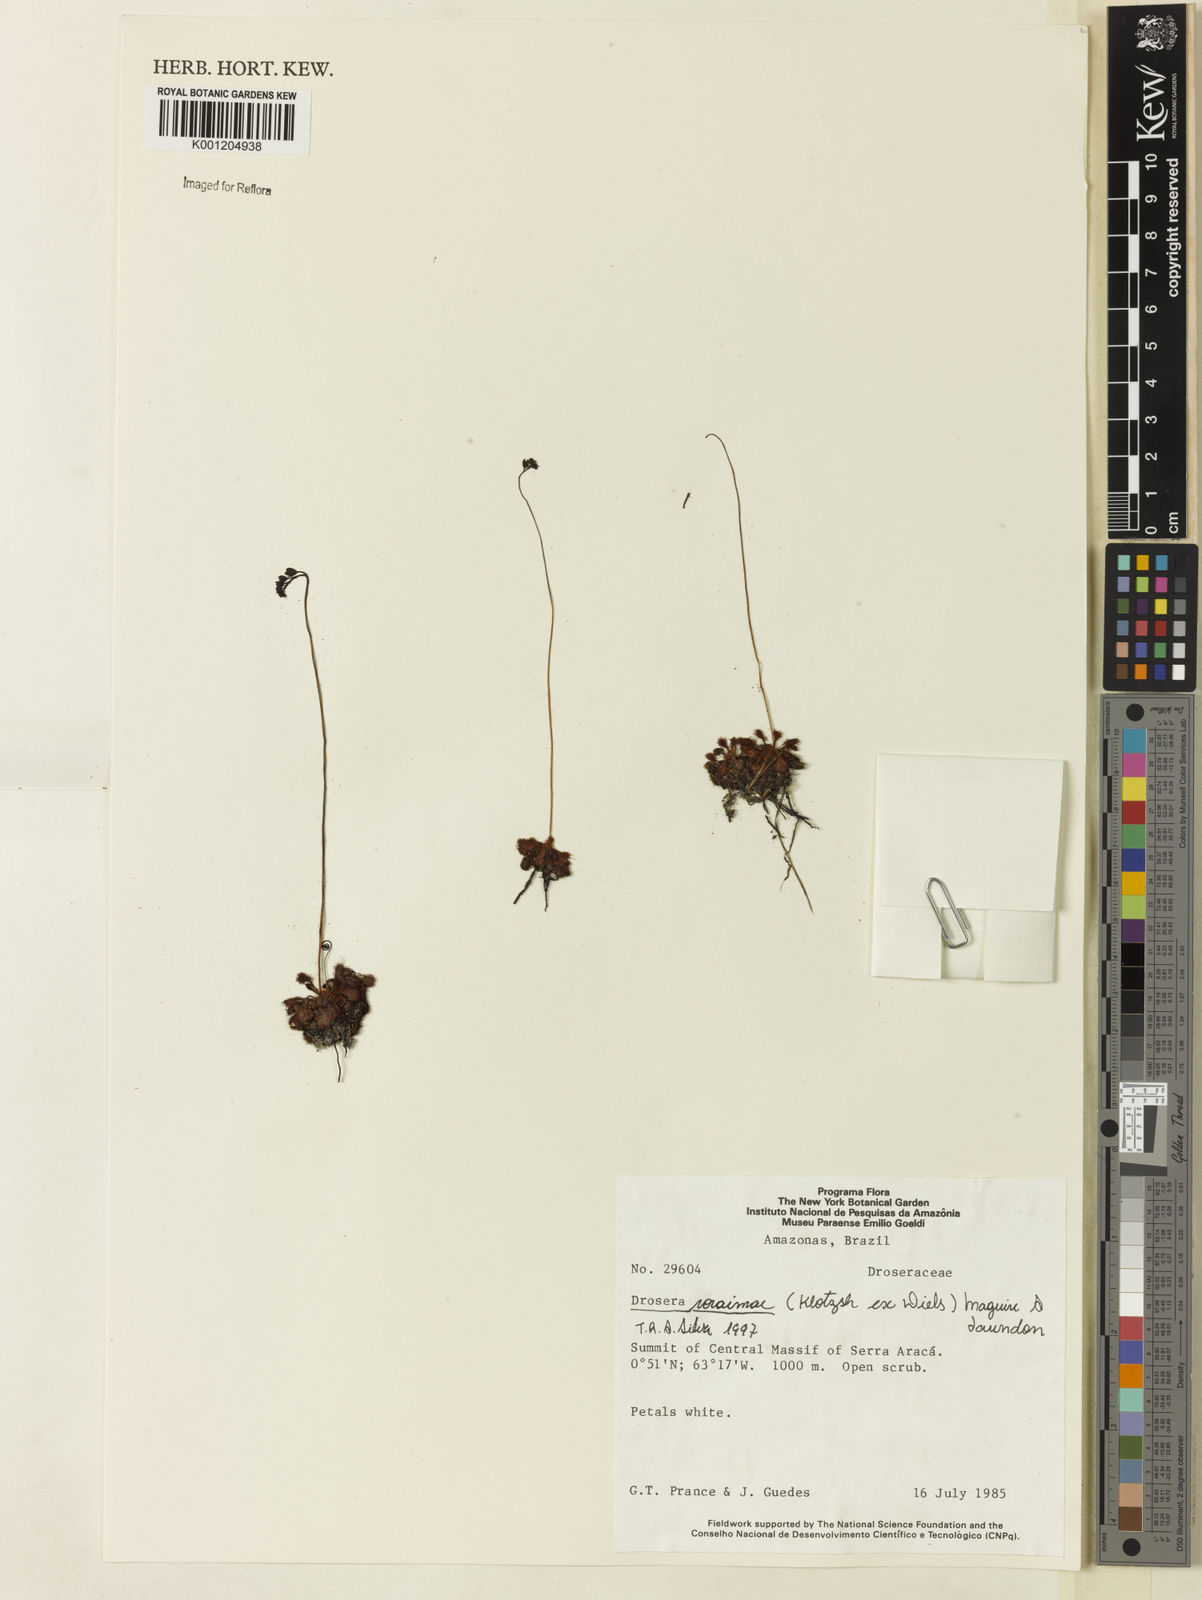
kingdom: Plantae
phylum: Tracheophyta
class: Magnoliopsida
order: Caryophyllales
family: Droseraceae
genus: Drosera
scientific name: Drosera roraimae
